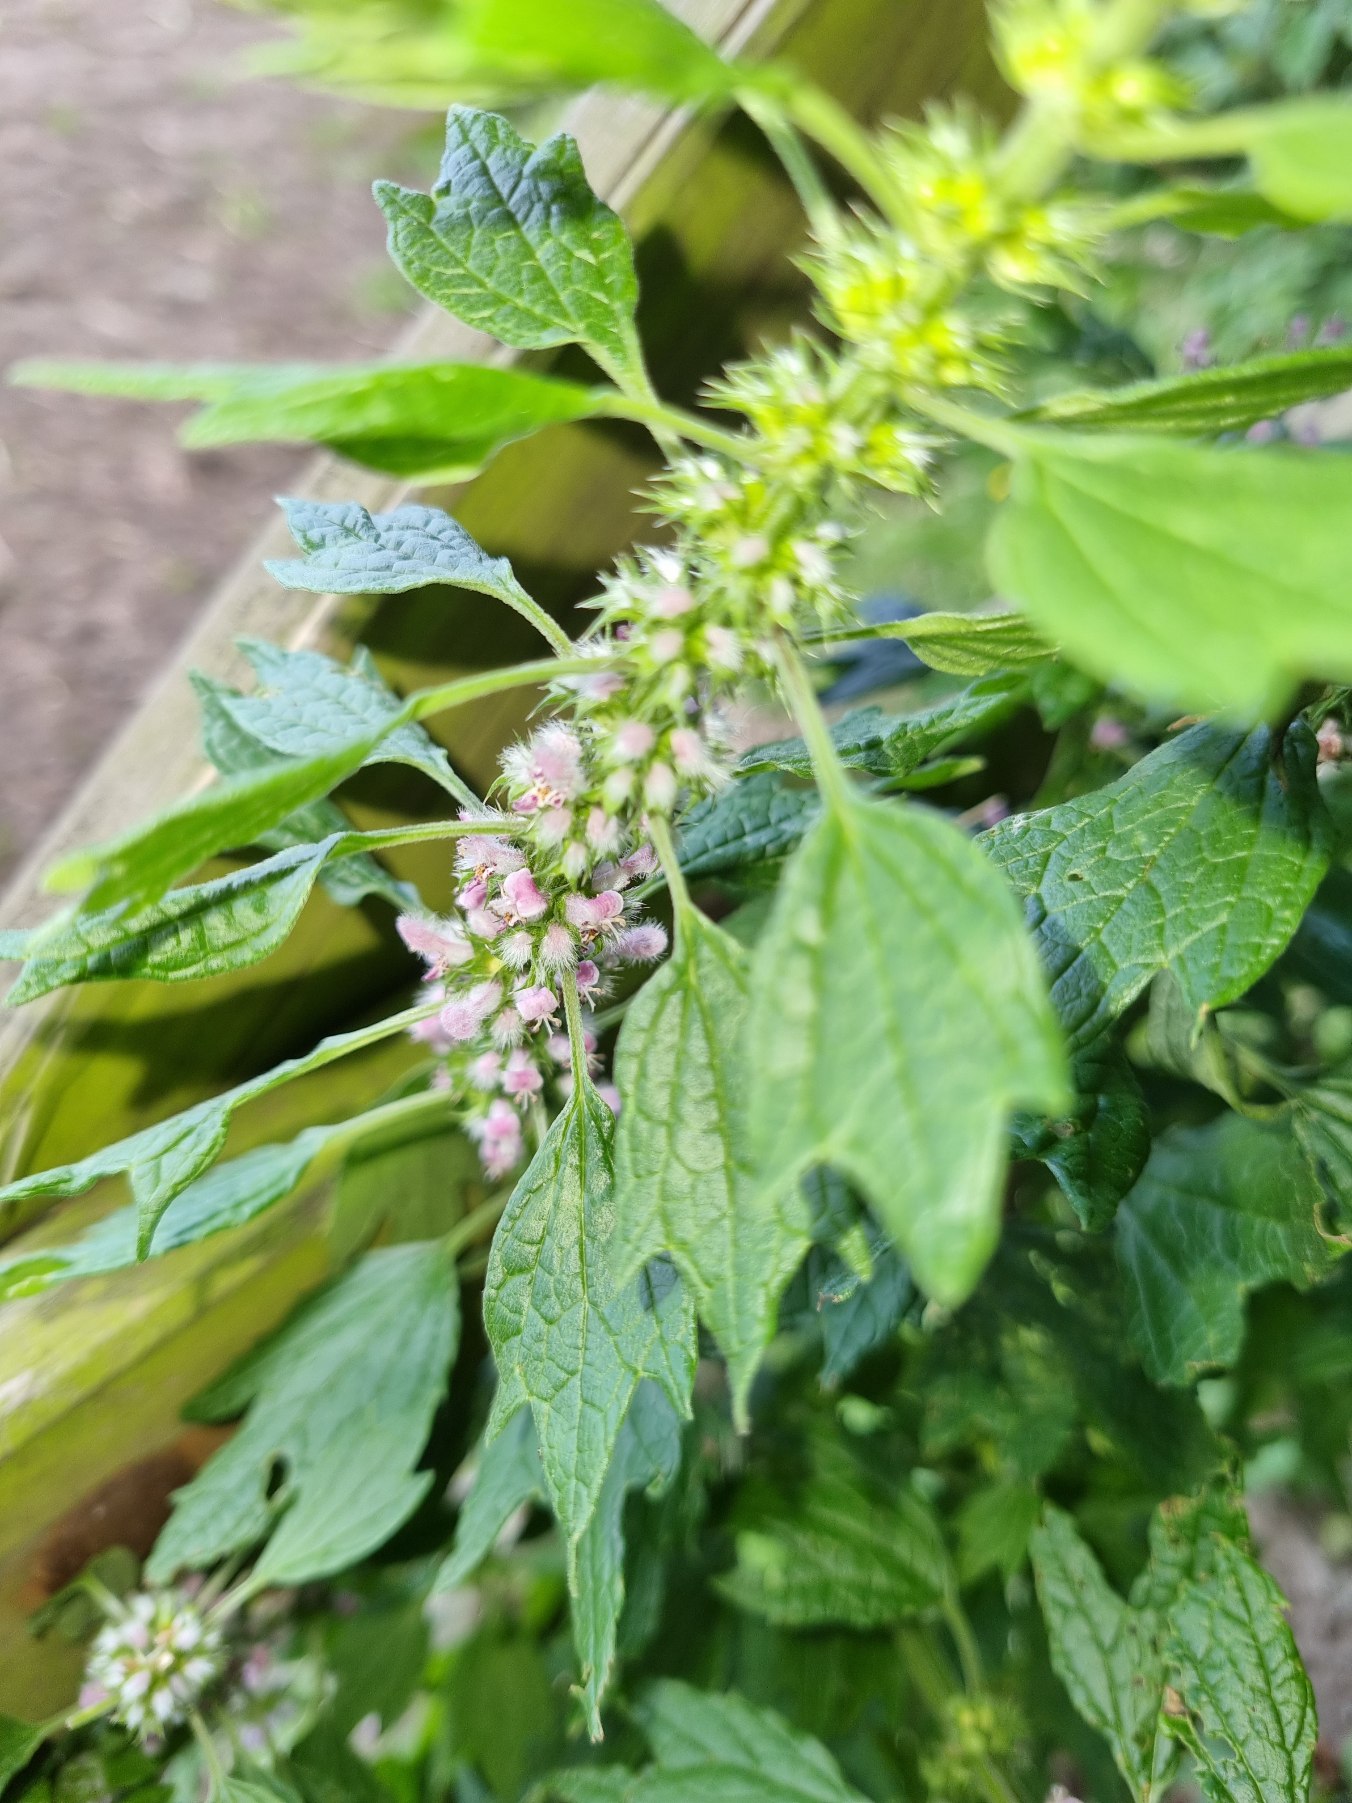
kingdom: Plantae
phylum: Tracheophyta
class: Magnoliopsida
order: Lamiales
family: Lamiaceae
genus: Leonurus
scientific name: Leonurus cardiaca
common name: Hjertespand
